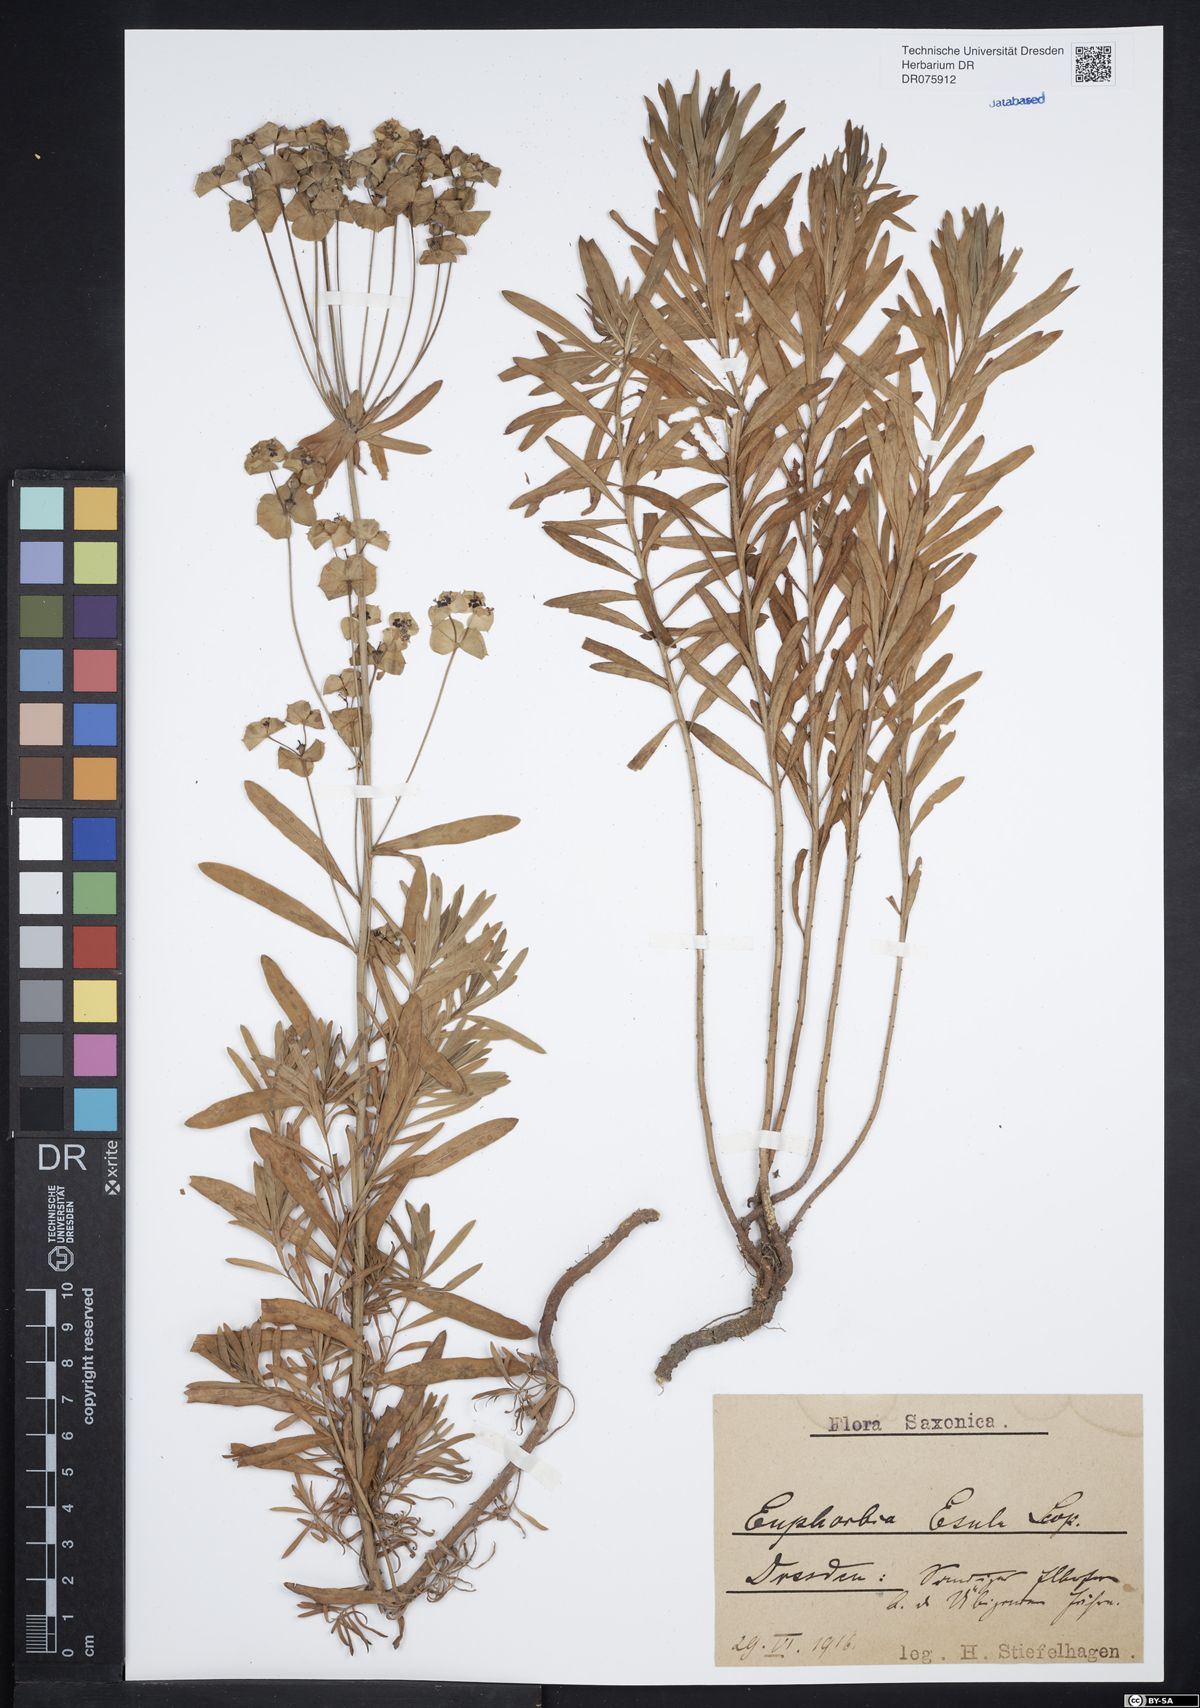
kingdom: Plantae
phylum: Tracheophyta
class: Magnoliopsida
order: Malpighiales
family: Euphorbiaceae
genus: Euphorbia
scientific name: Euphorbia esula
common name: Leafy spurge
